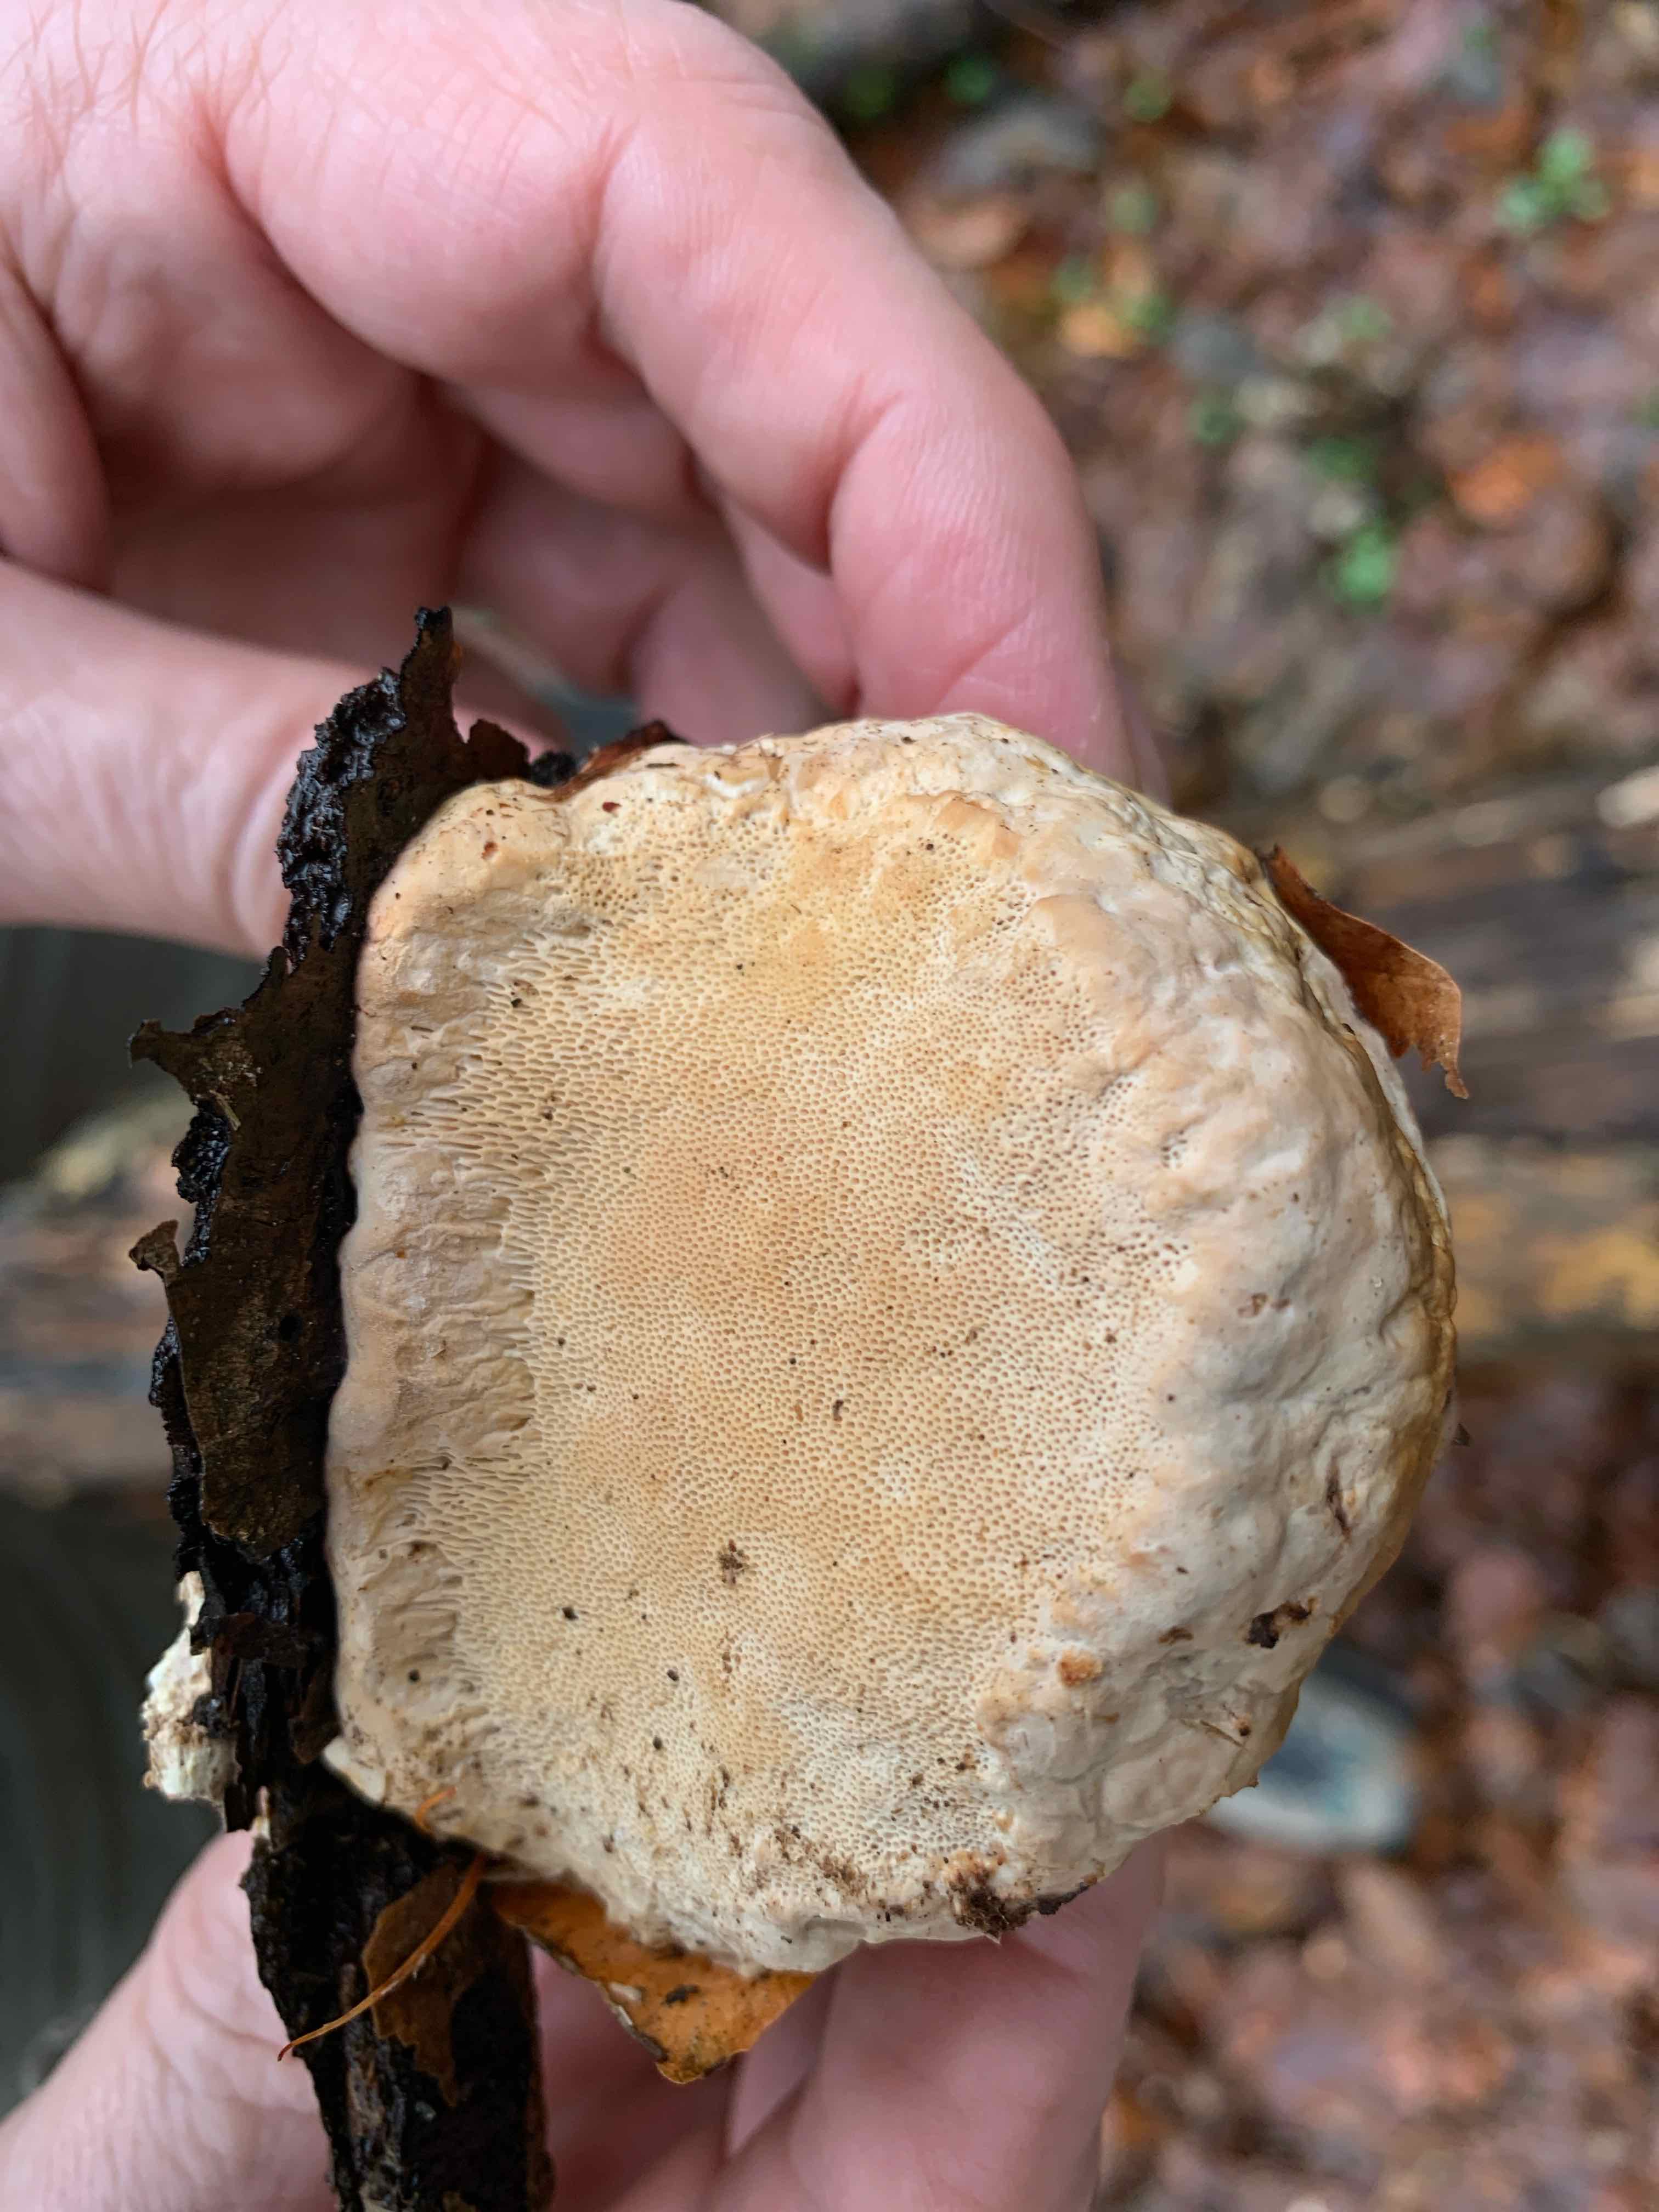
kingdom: Fungi
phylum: Basidiomycota
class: Agaricomycetes
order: Polyporales
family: Fomitopsidaceae
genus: Fomitopsis
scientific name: Fomitopsis pinicola
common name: randbæltet hovporesvamp
